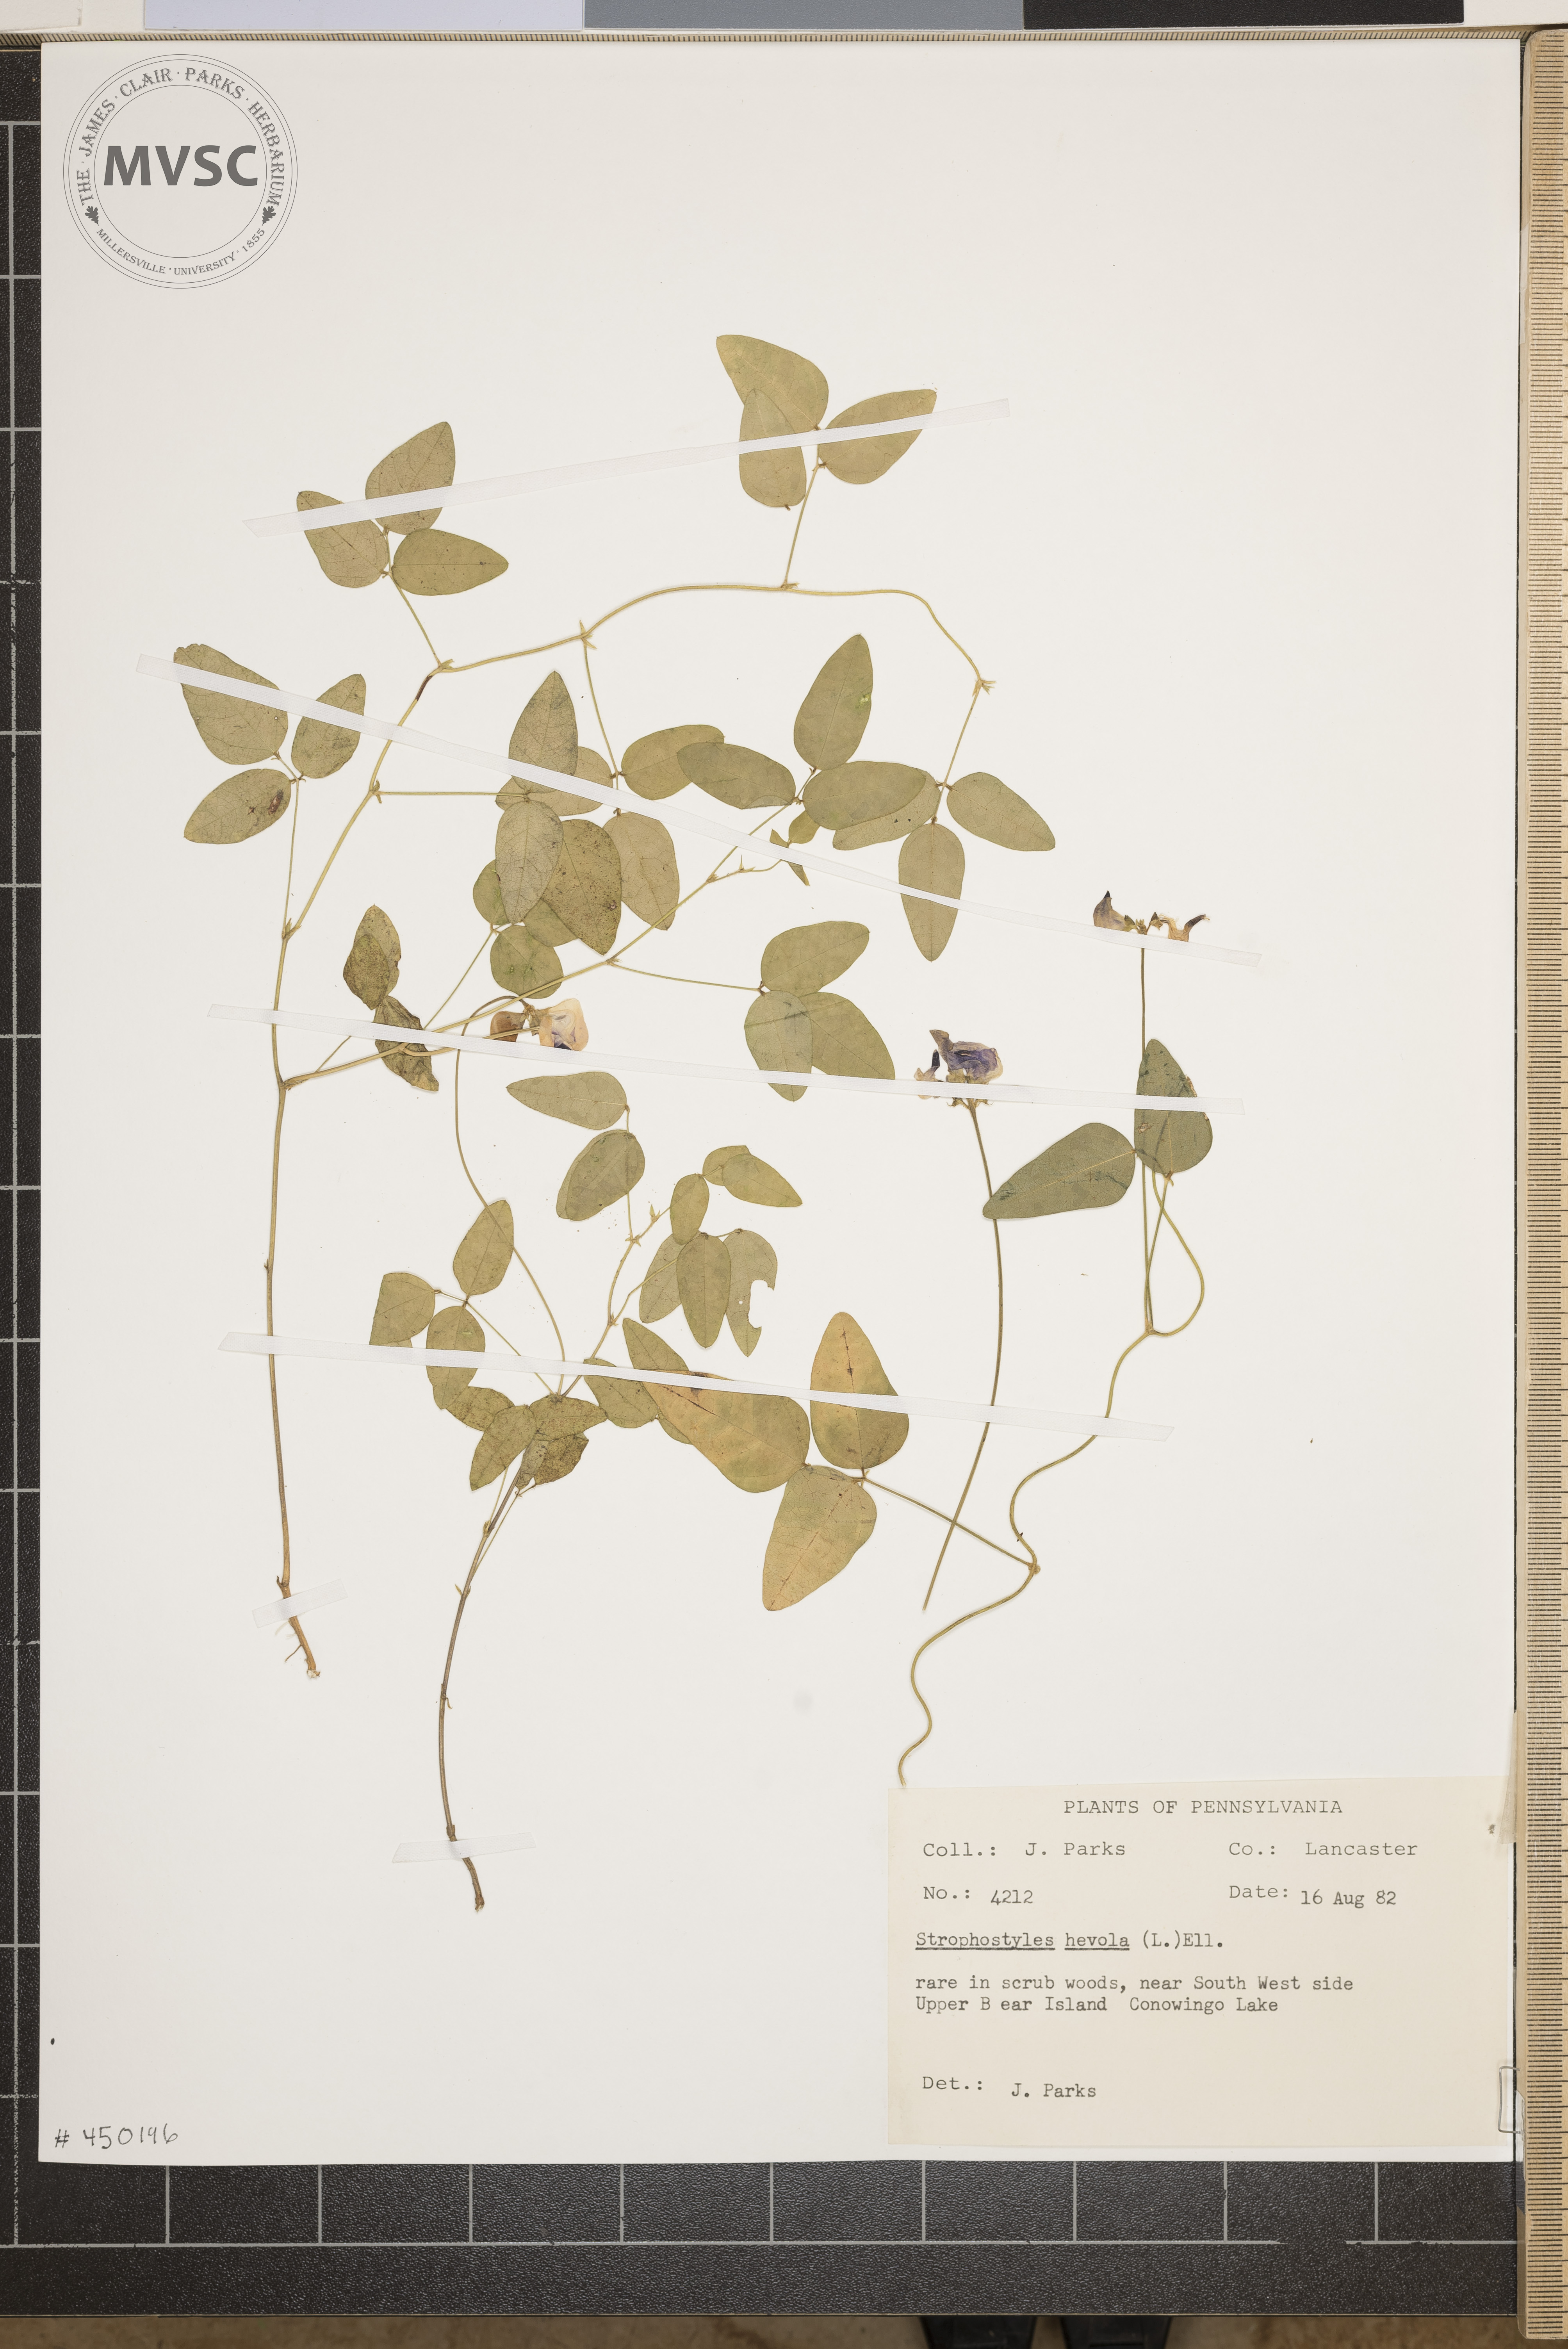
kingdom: Plantae
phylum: Tracheophyta
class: Magnoliopsida
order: Fabales
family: Fabaceae
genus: Strophostyles
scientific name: Strophostyles helvola
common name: Trailing wild bean
